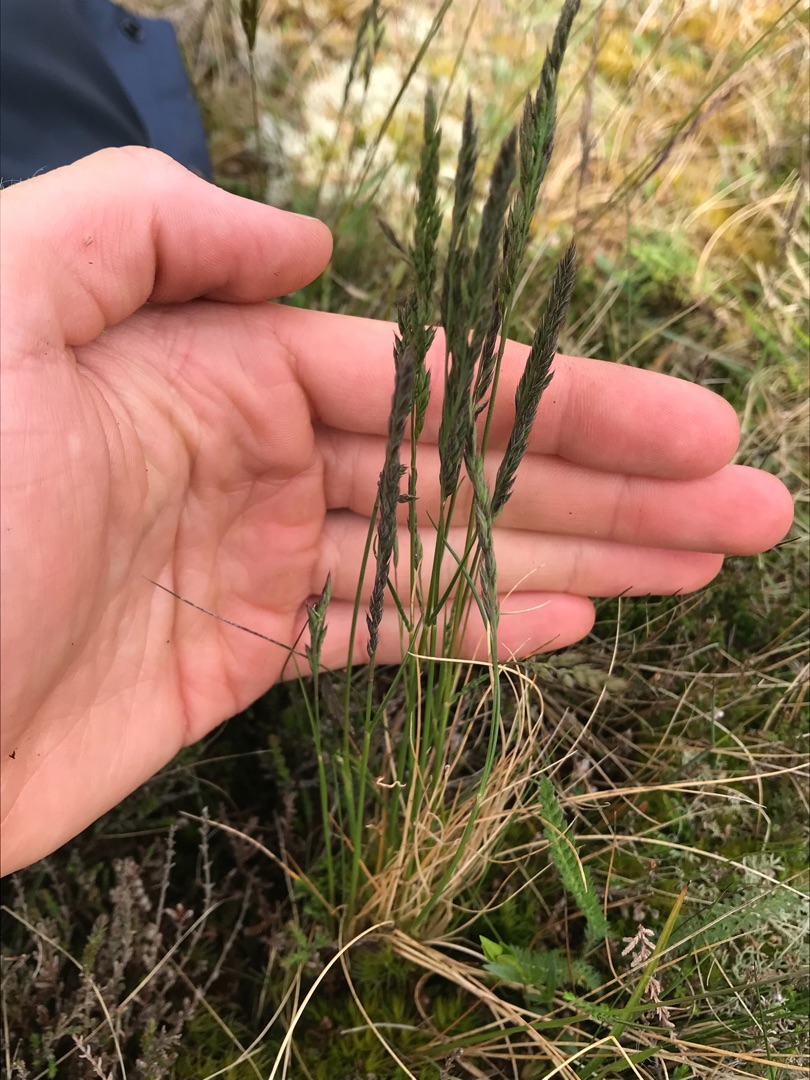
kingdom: Plantae
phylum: Tracheophyta
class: Liliopsida
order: Poales
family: Poaceae
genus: Festuca
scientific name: Festuca ovina
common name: Fåre-svingel
